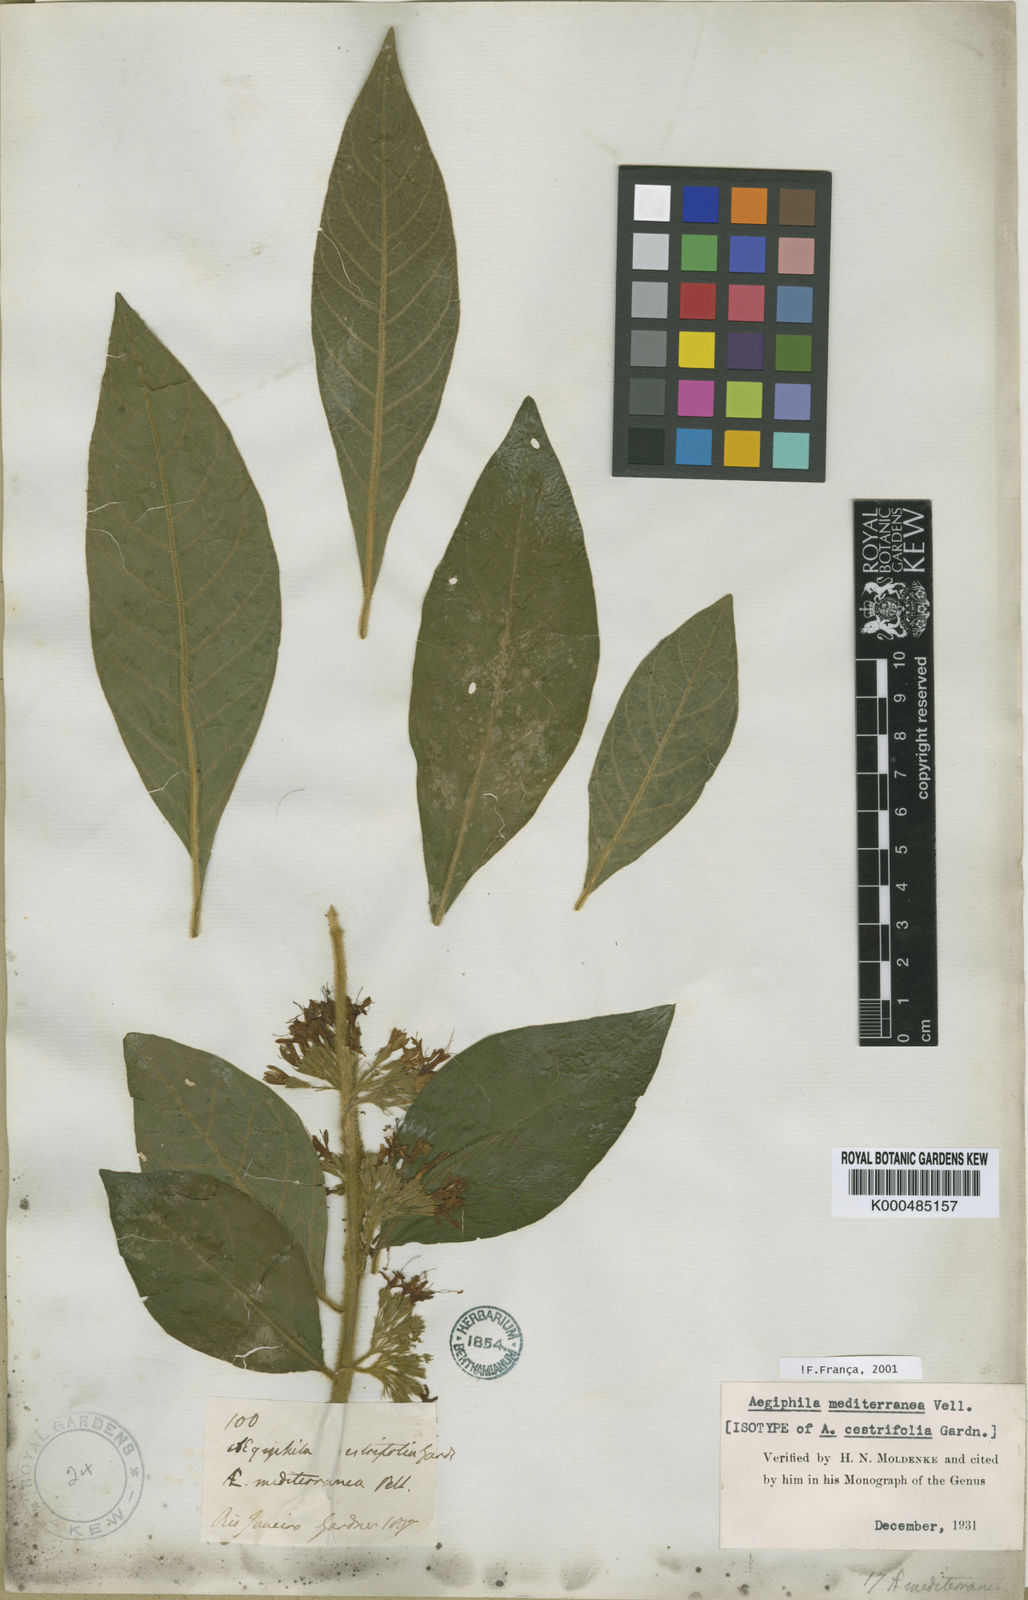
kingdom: Plantae
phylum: Tracheophyta
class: Magnoliopsida
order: Lamiales
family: Lamiaceae
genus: Aegiphila
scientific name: Aegiphila mediterranea
